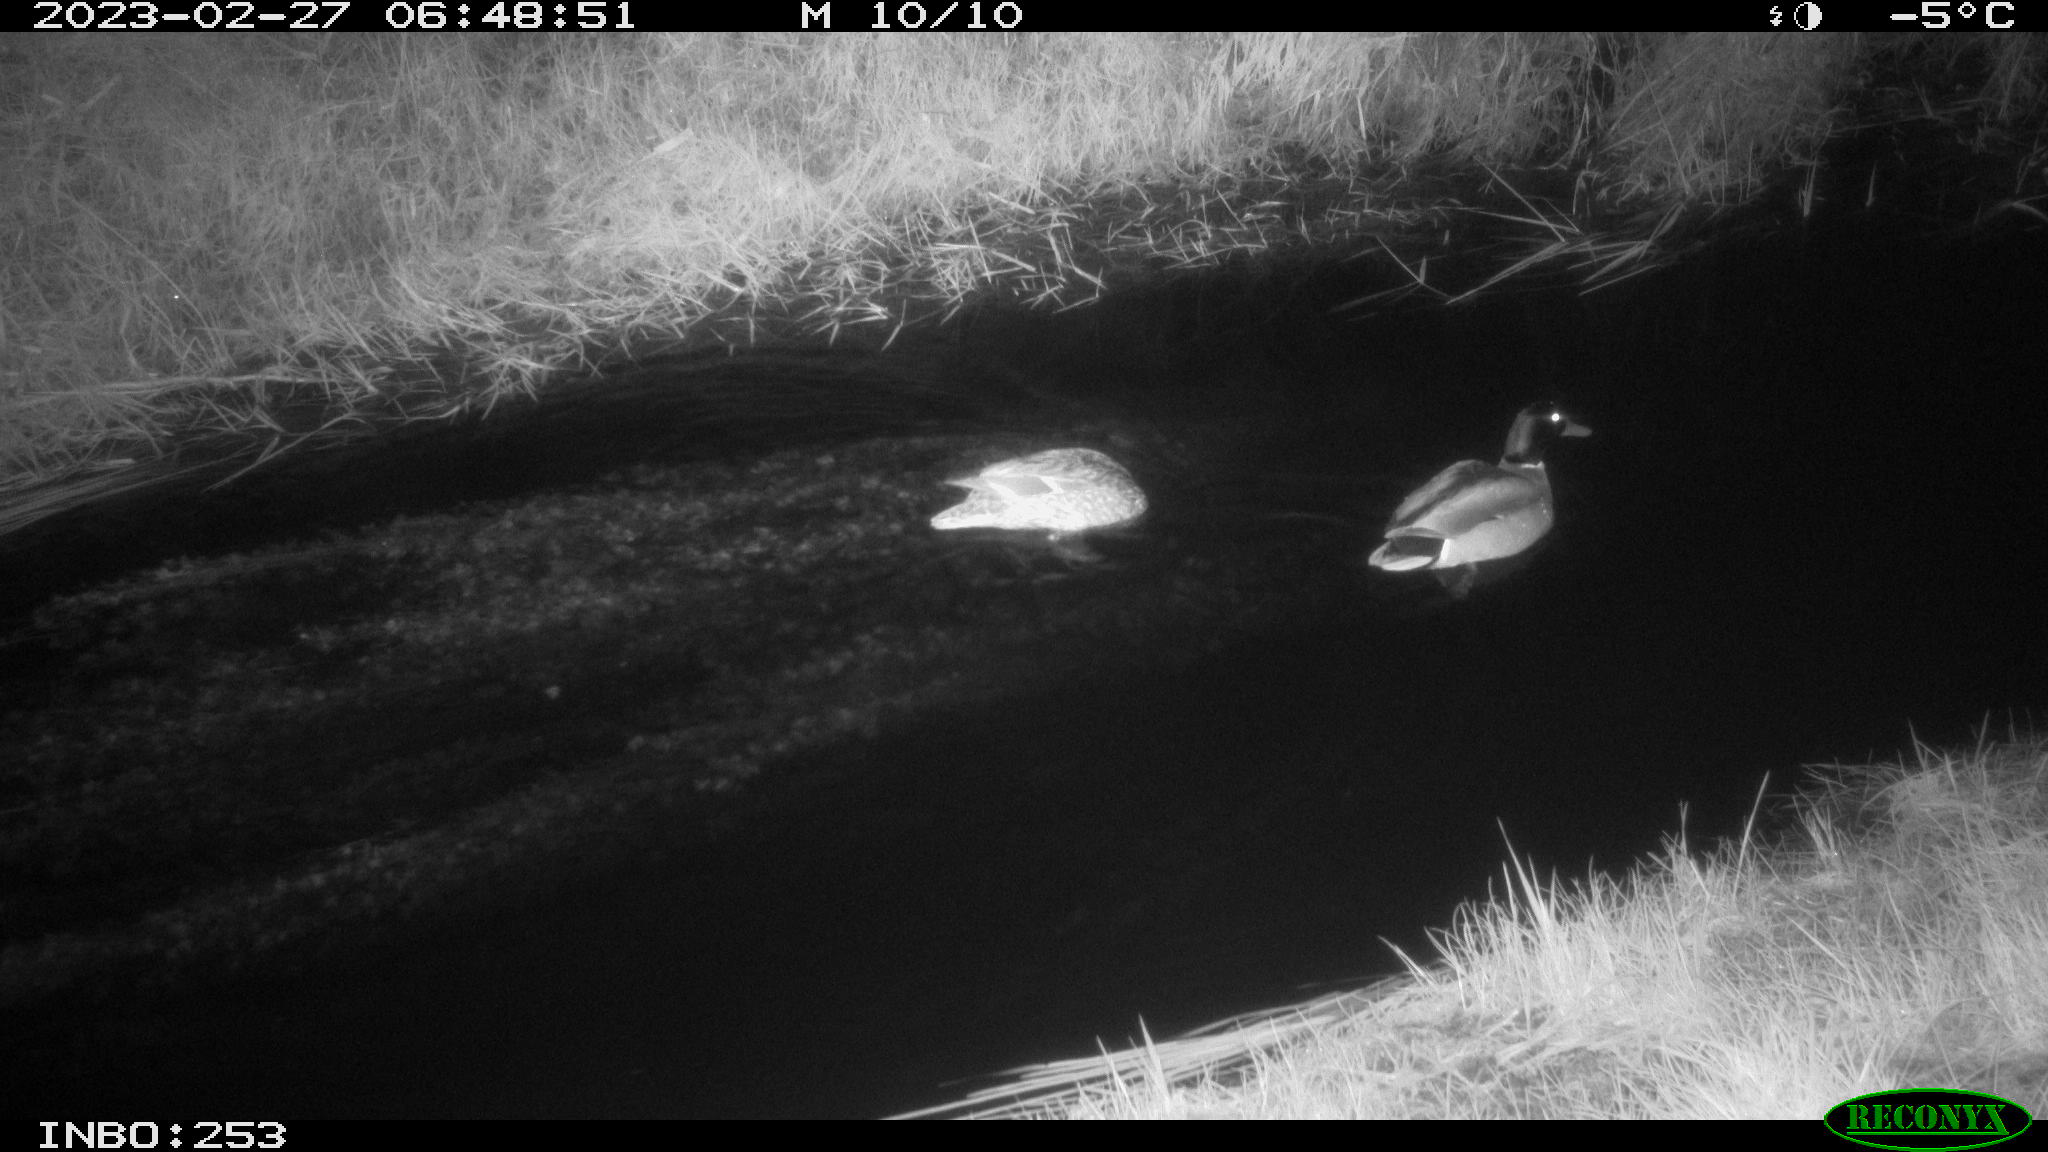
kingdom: Animalia
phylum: Chordata
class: Aves
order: Anseriformes
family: Anatidae
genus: Anas
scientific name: Anas
